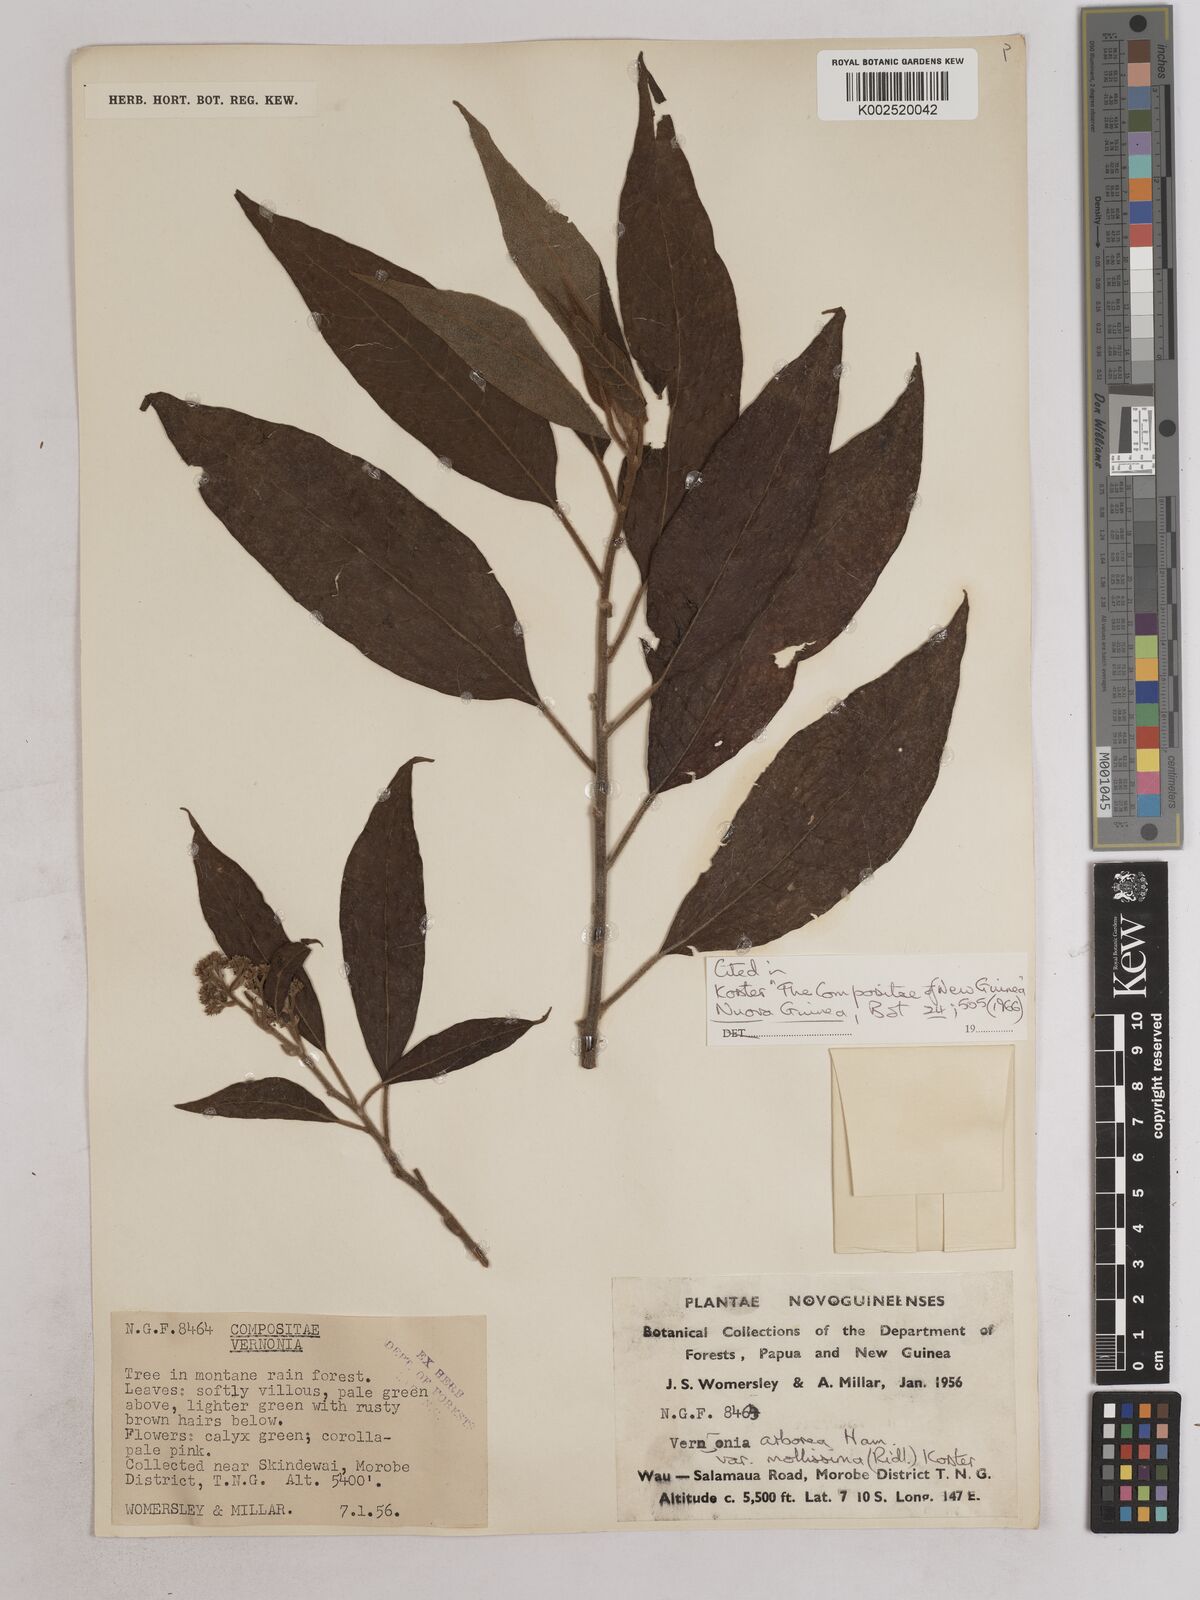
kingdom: Plantae
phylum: Tracheophyta
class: Magnoliopsida
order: Asterales
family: Asteraceae
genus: Strobocalyx
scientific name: Strobocalyx arborea
